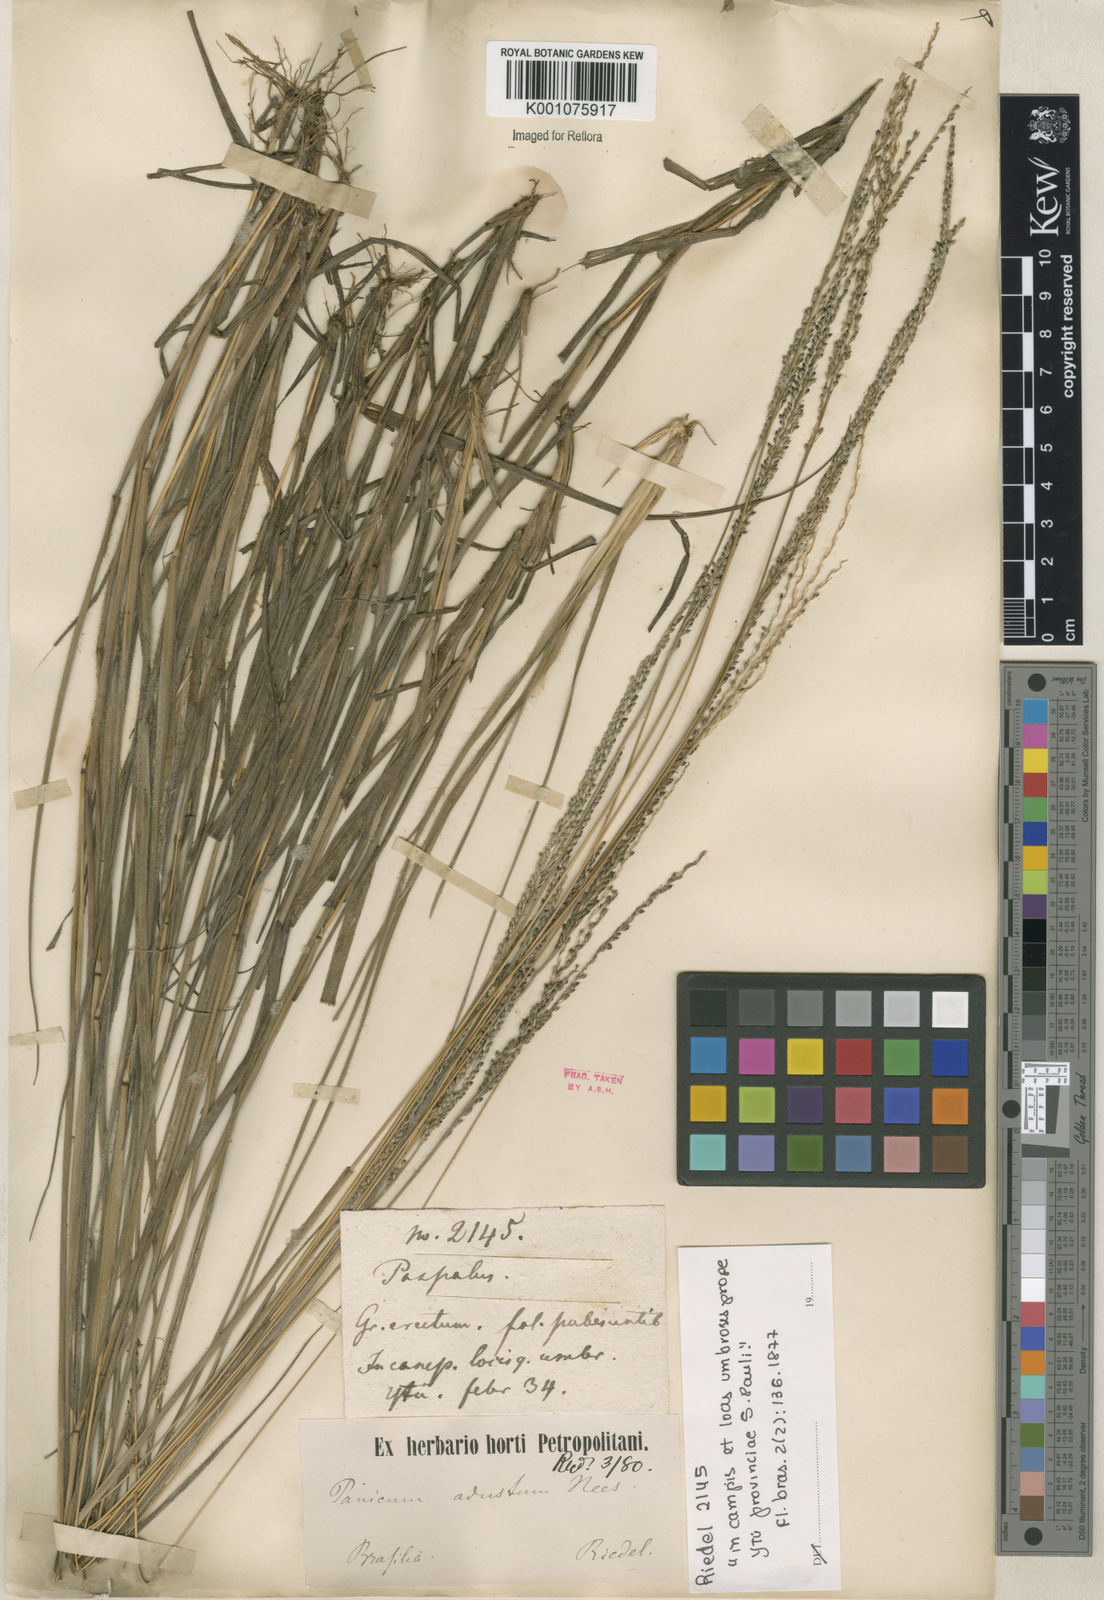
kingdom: Plantae
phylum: Tracheophyta
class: Liliopsida
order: Poales
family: Poaceae
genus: Digitaria
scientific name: Digitaria corynotricha
